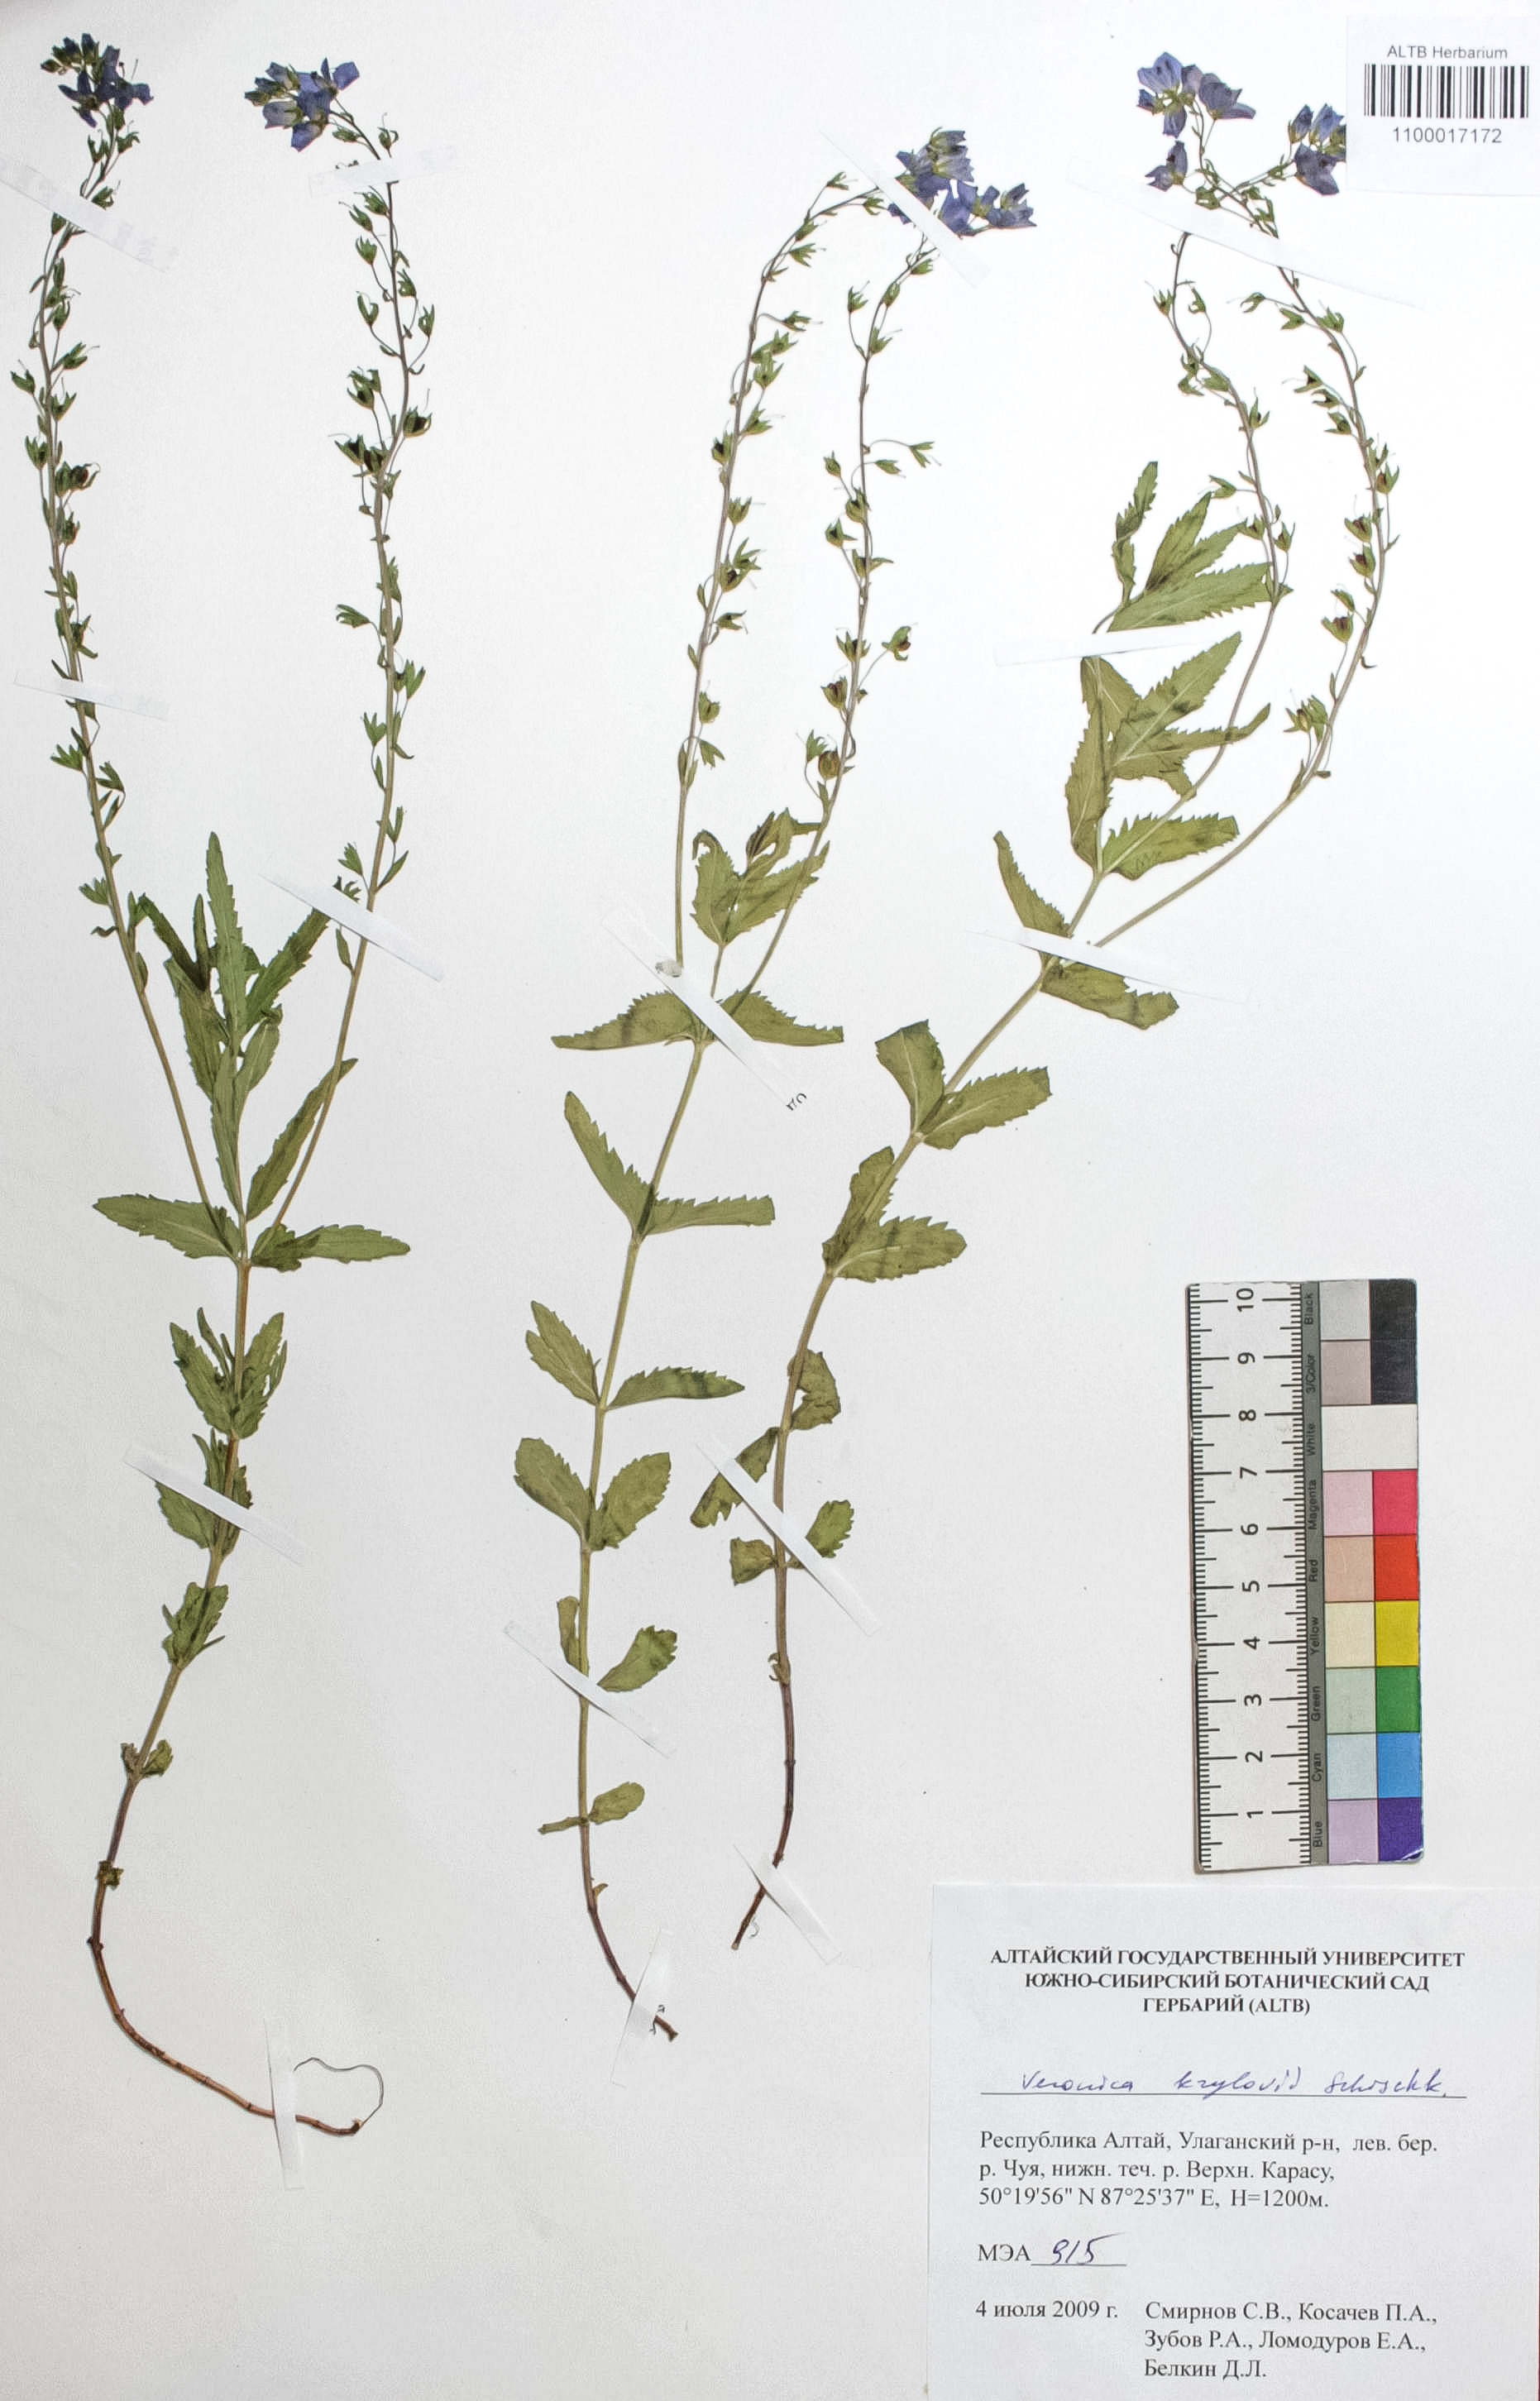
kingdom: Plantae
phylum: Tracheophyta
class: Magnoliopsida
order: Lamiales
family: Plantaginaceae
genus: Veronica
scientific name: Veronica krylovii
